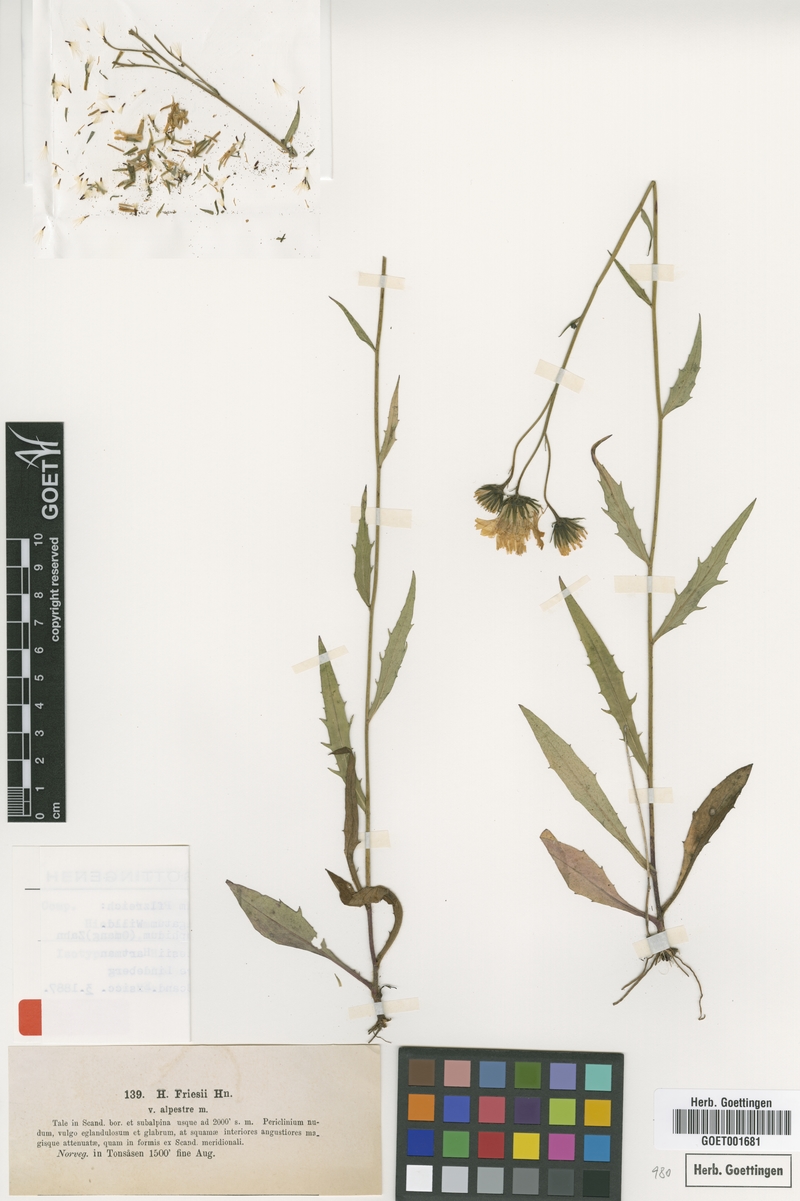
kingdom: Plantae
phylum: Tracheophyta
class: Magnoliopsida
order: Asterales
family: Asteraceae
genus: Hieracium
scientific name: Hieracium laevigatum
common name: Smooth hawkweed
